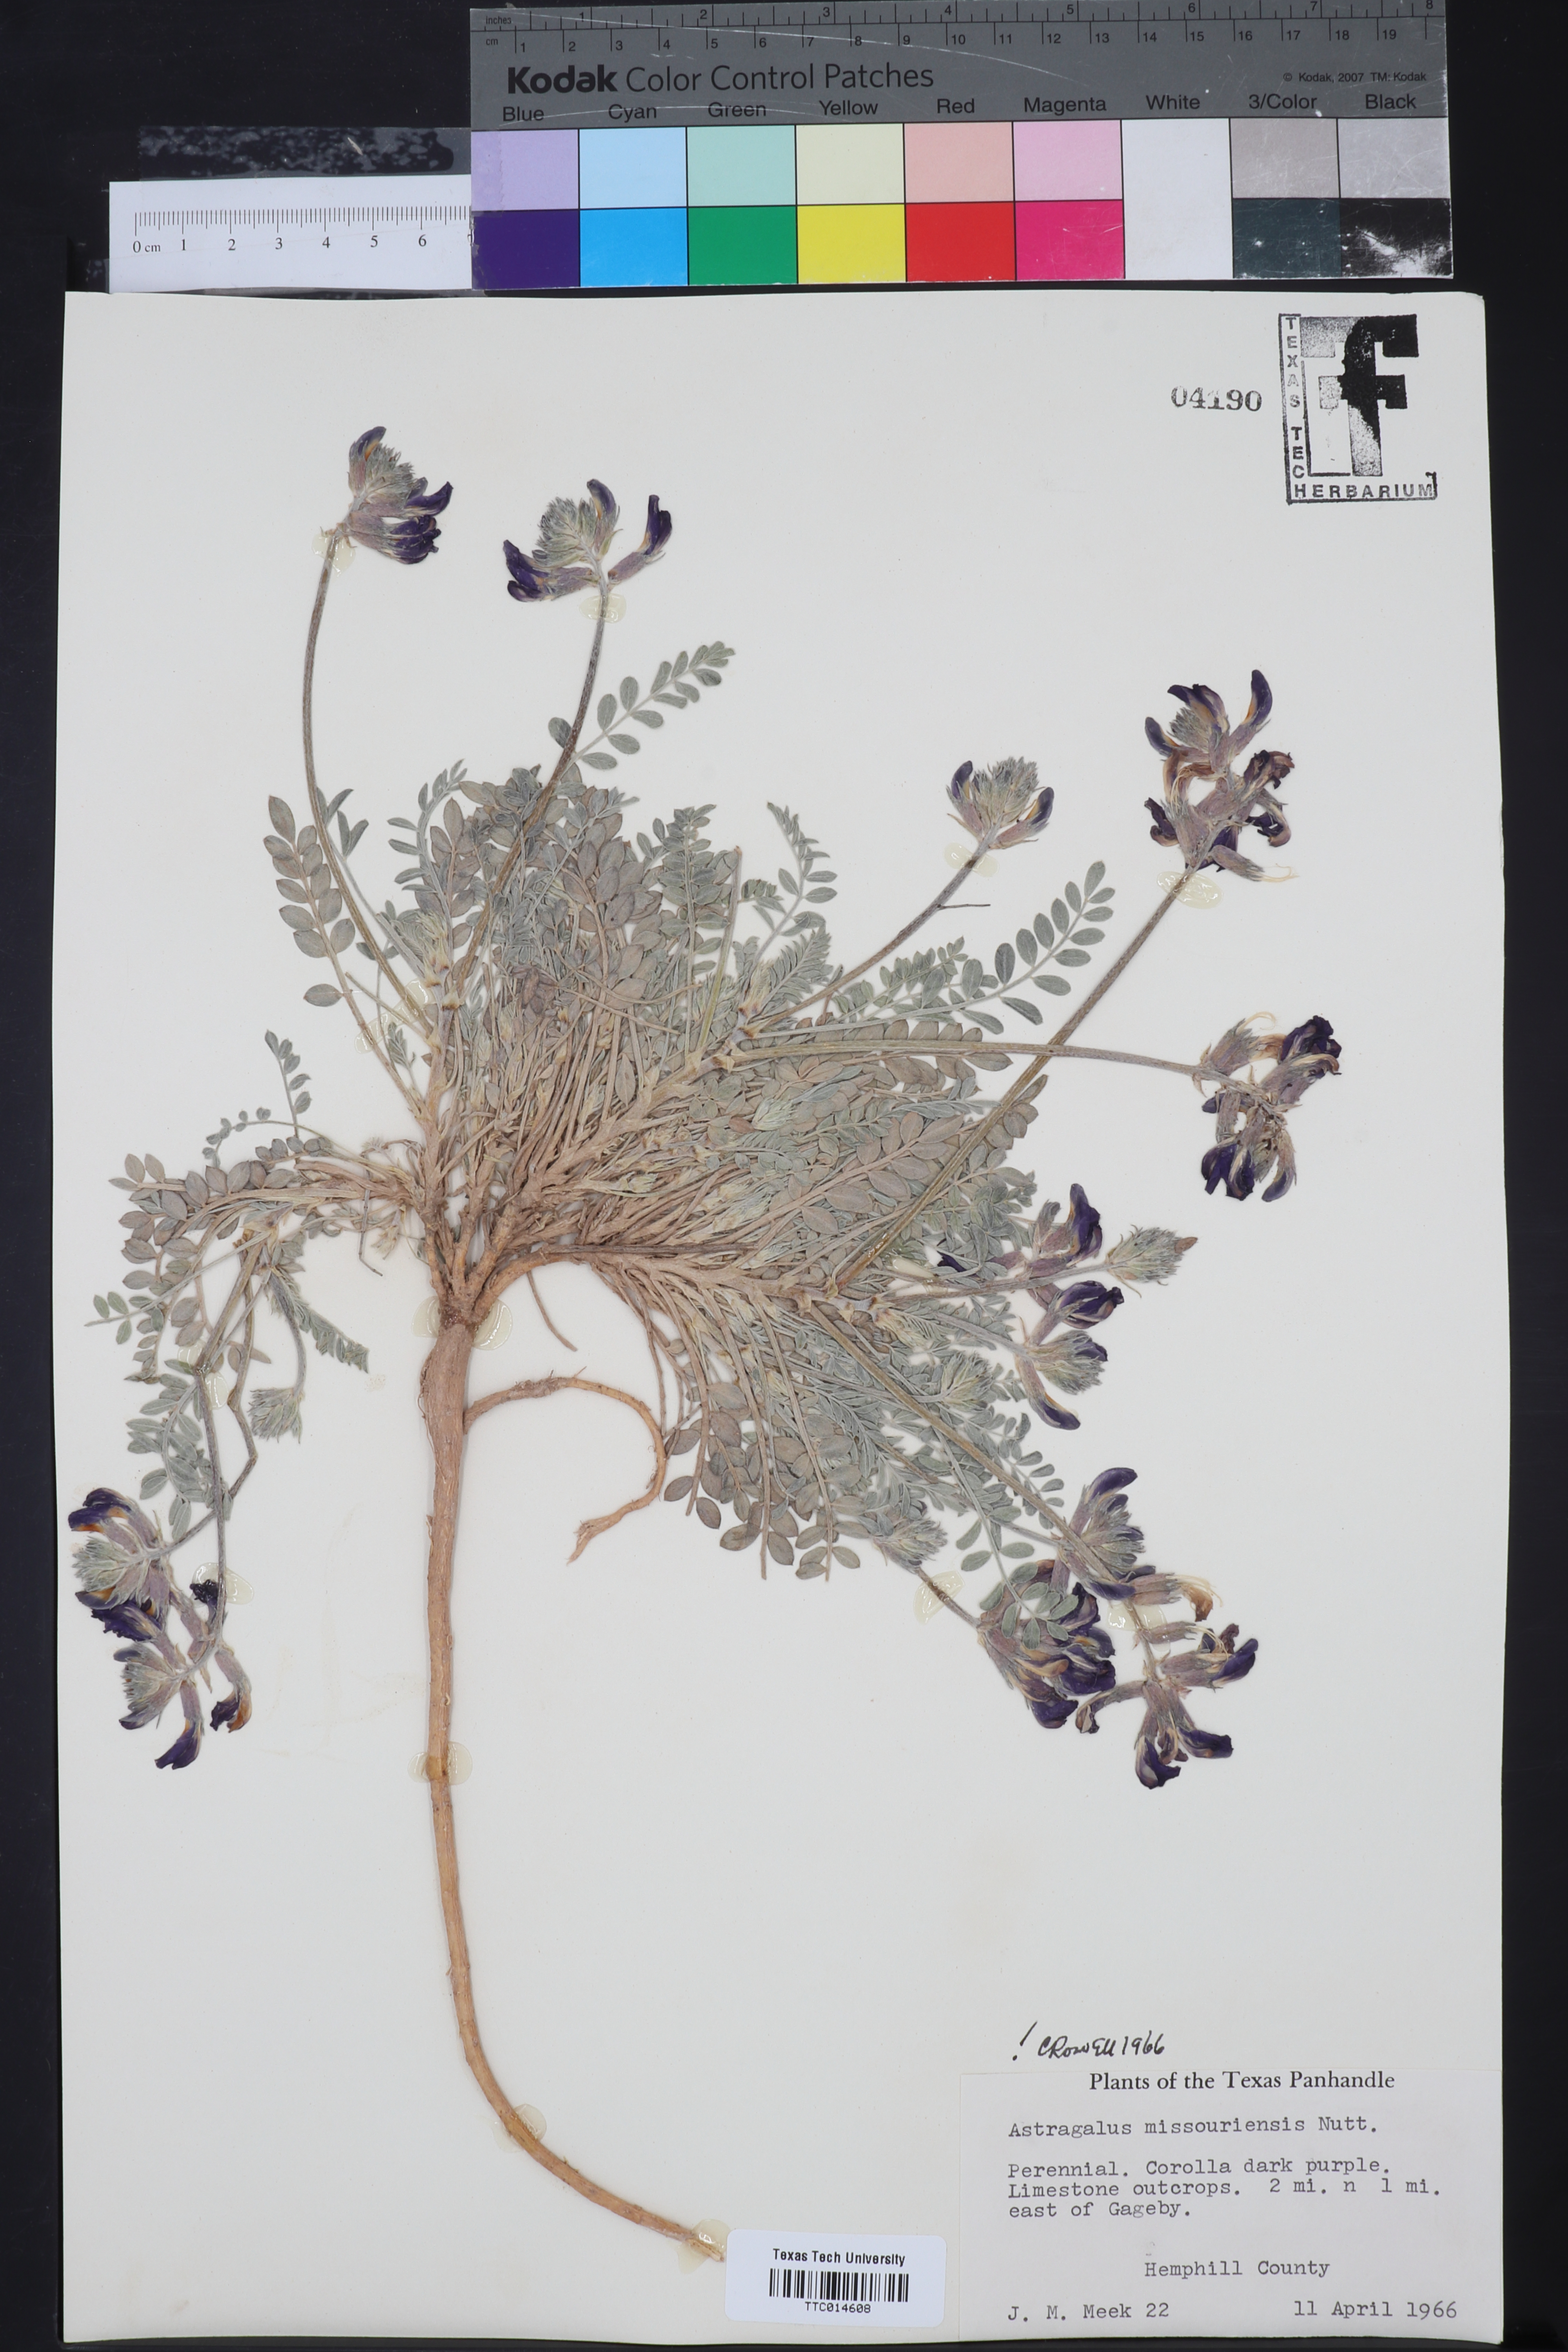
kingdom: Plantae
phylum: Tracheophyta
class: Magnoliopsida
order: Fabales
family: Fabaceae
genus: Astragalus
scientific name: Astragalus missouriensis
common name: Missouri milk-vetch
